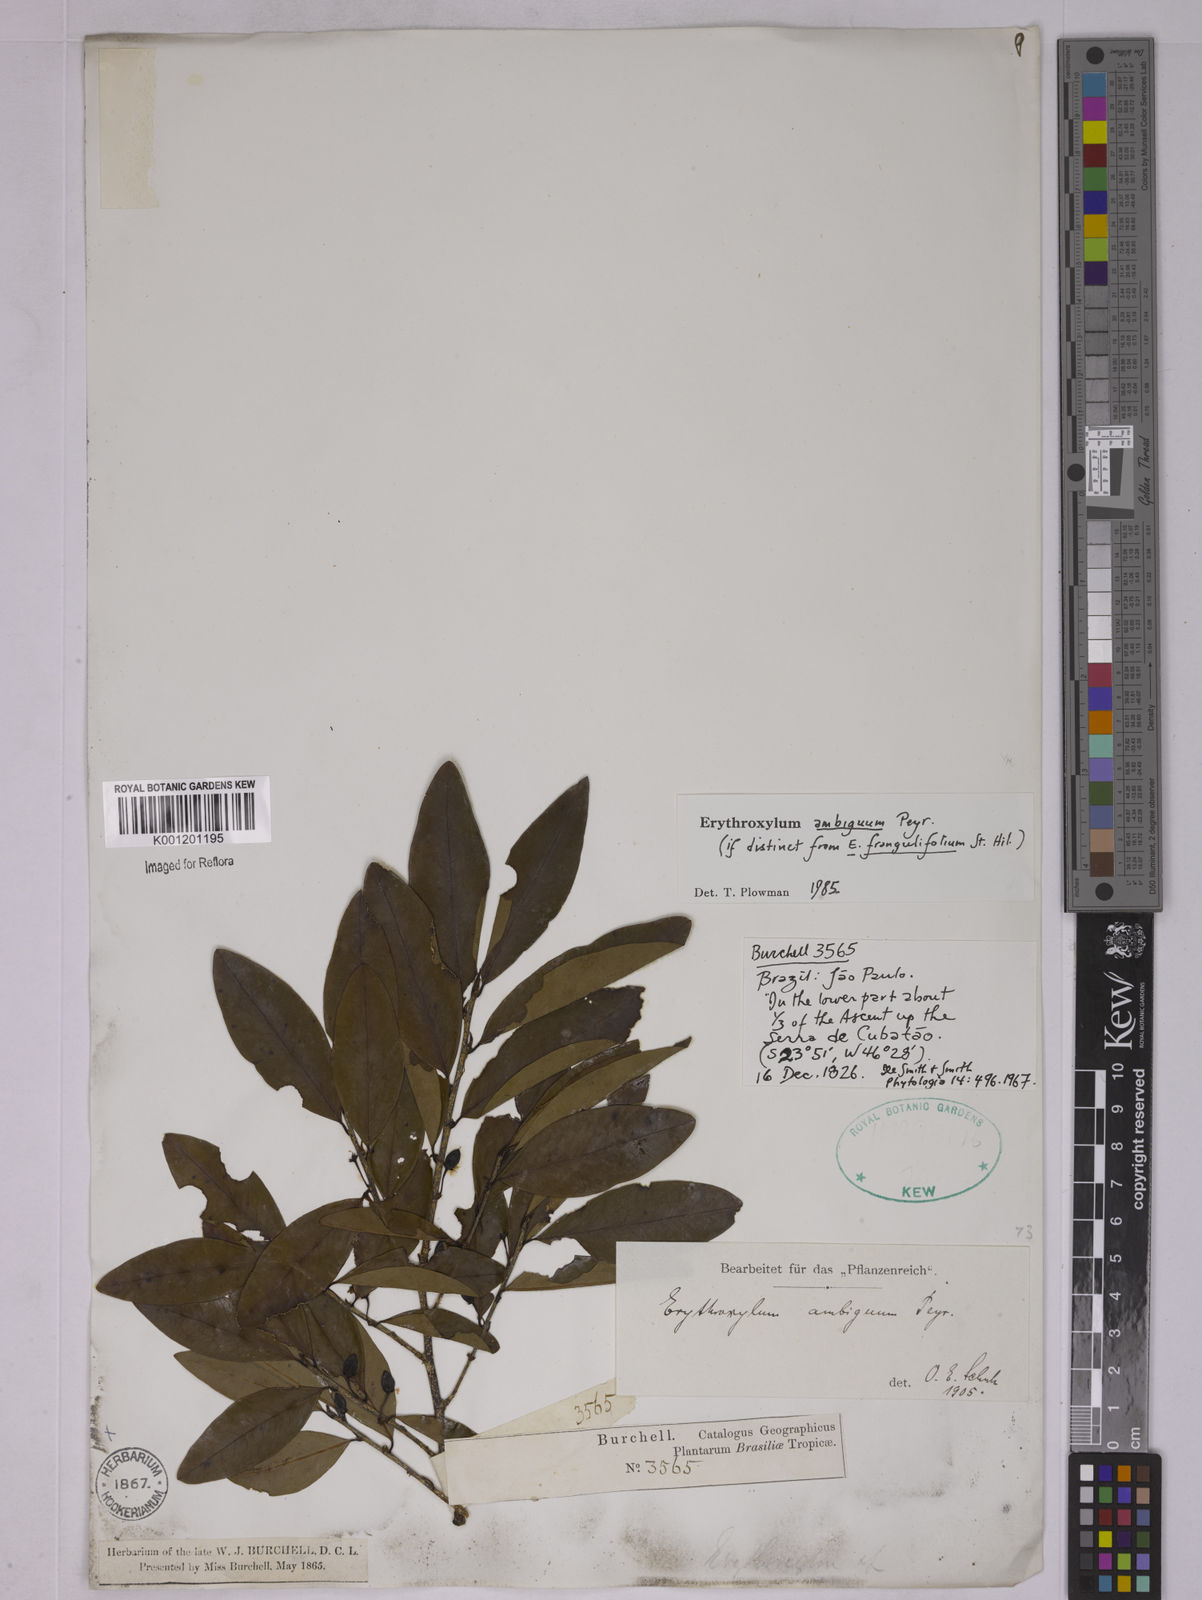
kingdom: Plantae
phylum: Tracheophyta
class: Magnoliopsida
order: Malpighiales
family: Erythroxylaceae
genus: Erythroxylum
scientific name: Erythroxylum ambiguum
